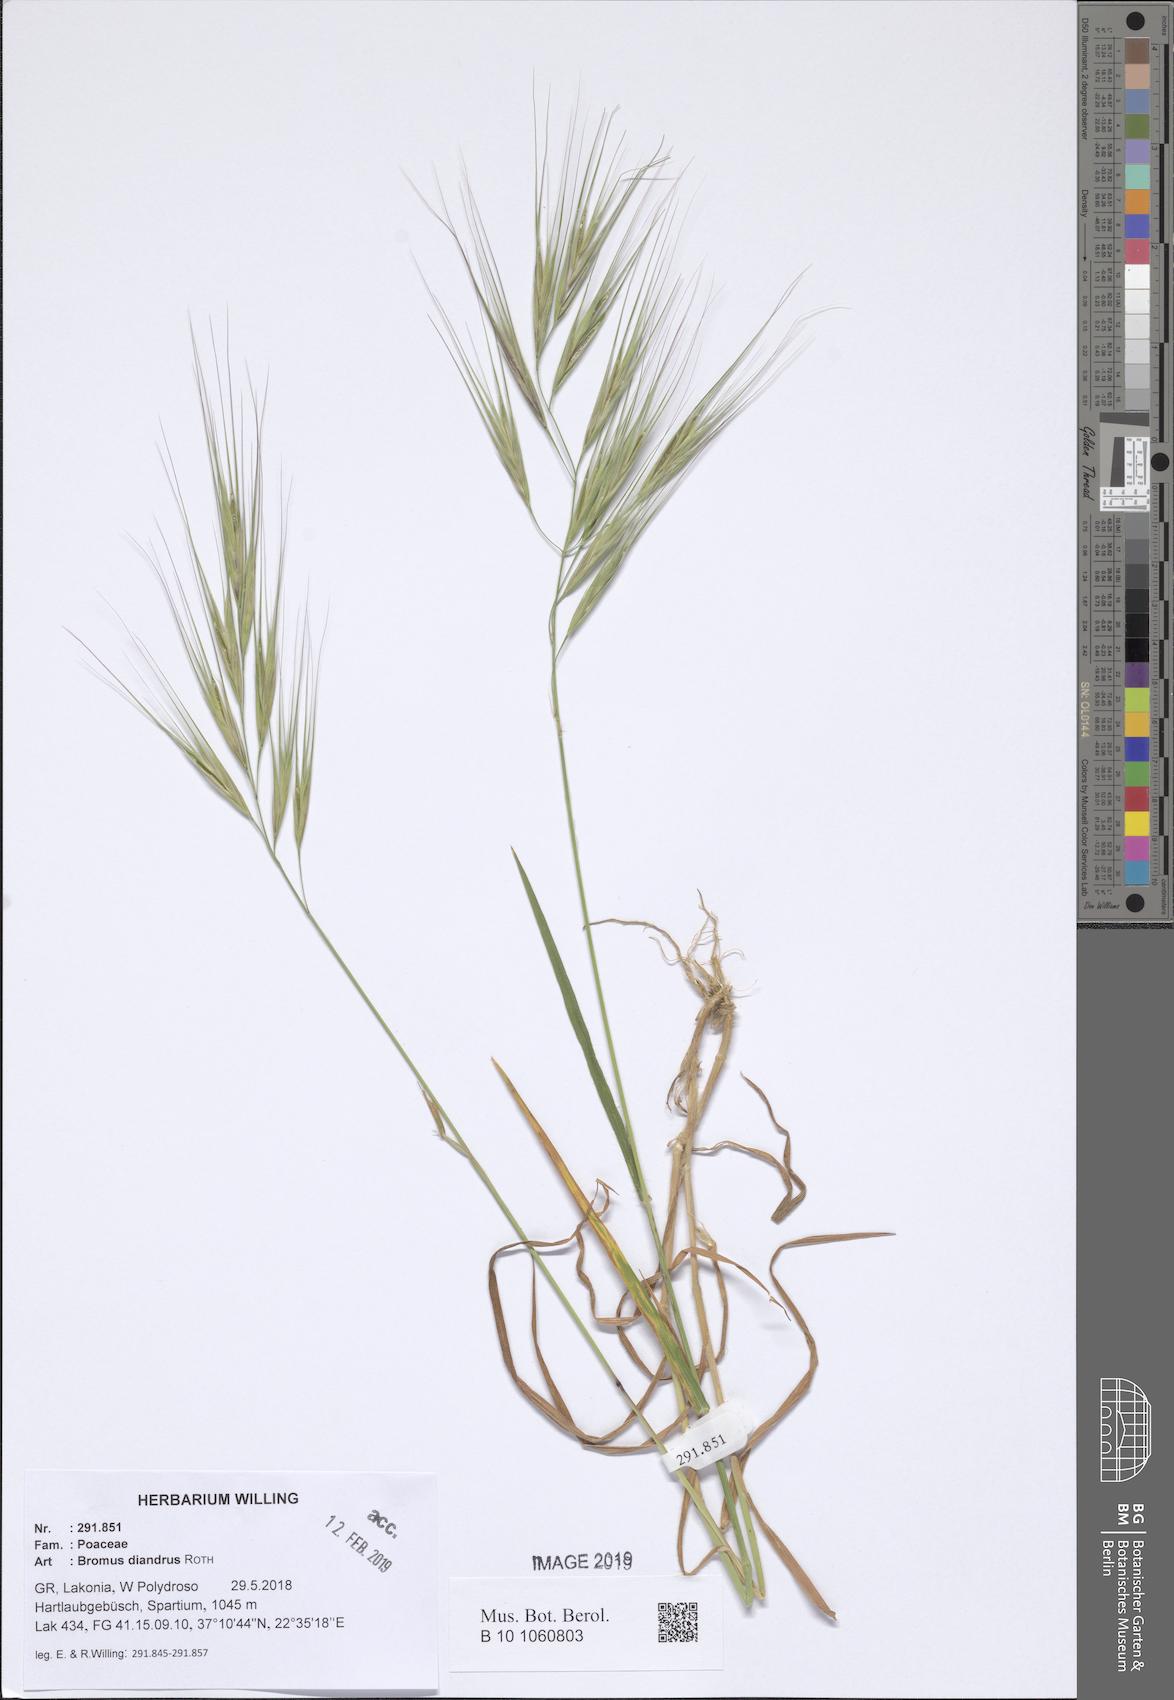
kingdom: Plantae
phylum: Tracheophyta
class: Liliopsida
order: Poales
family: Poaceae
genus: Bromus
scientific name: Bromus diandrus
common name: Ripgut brome
